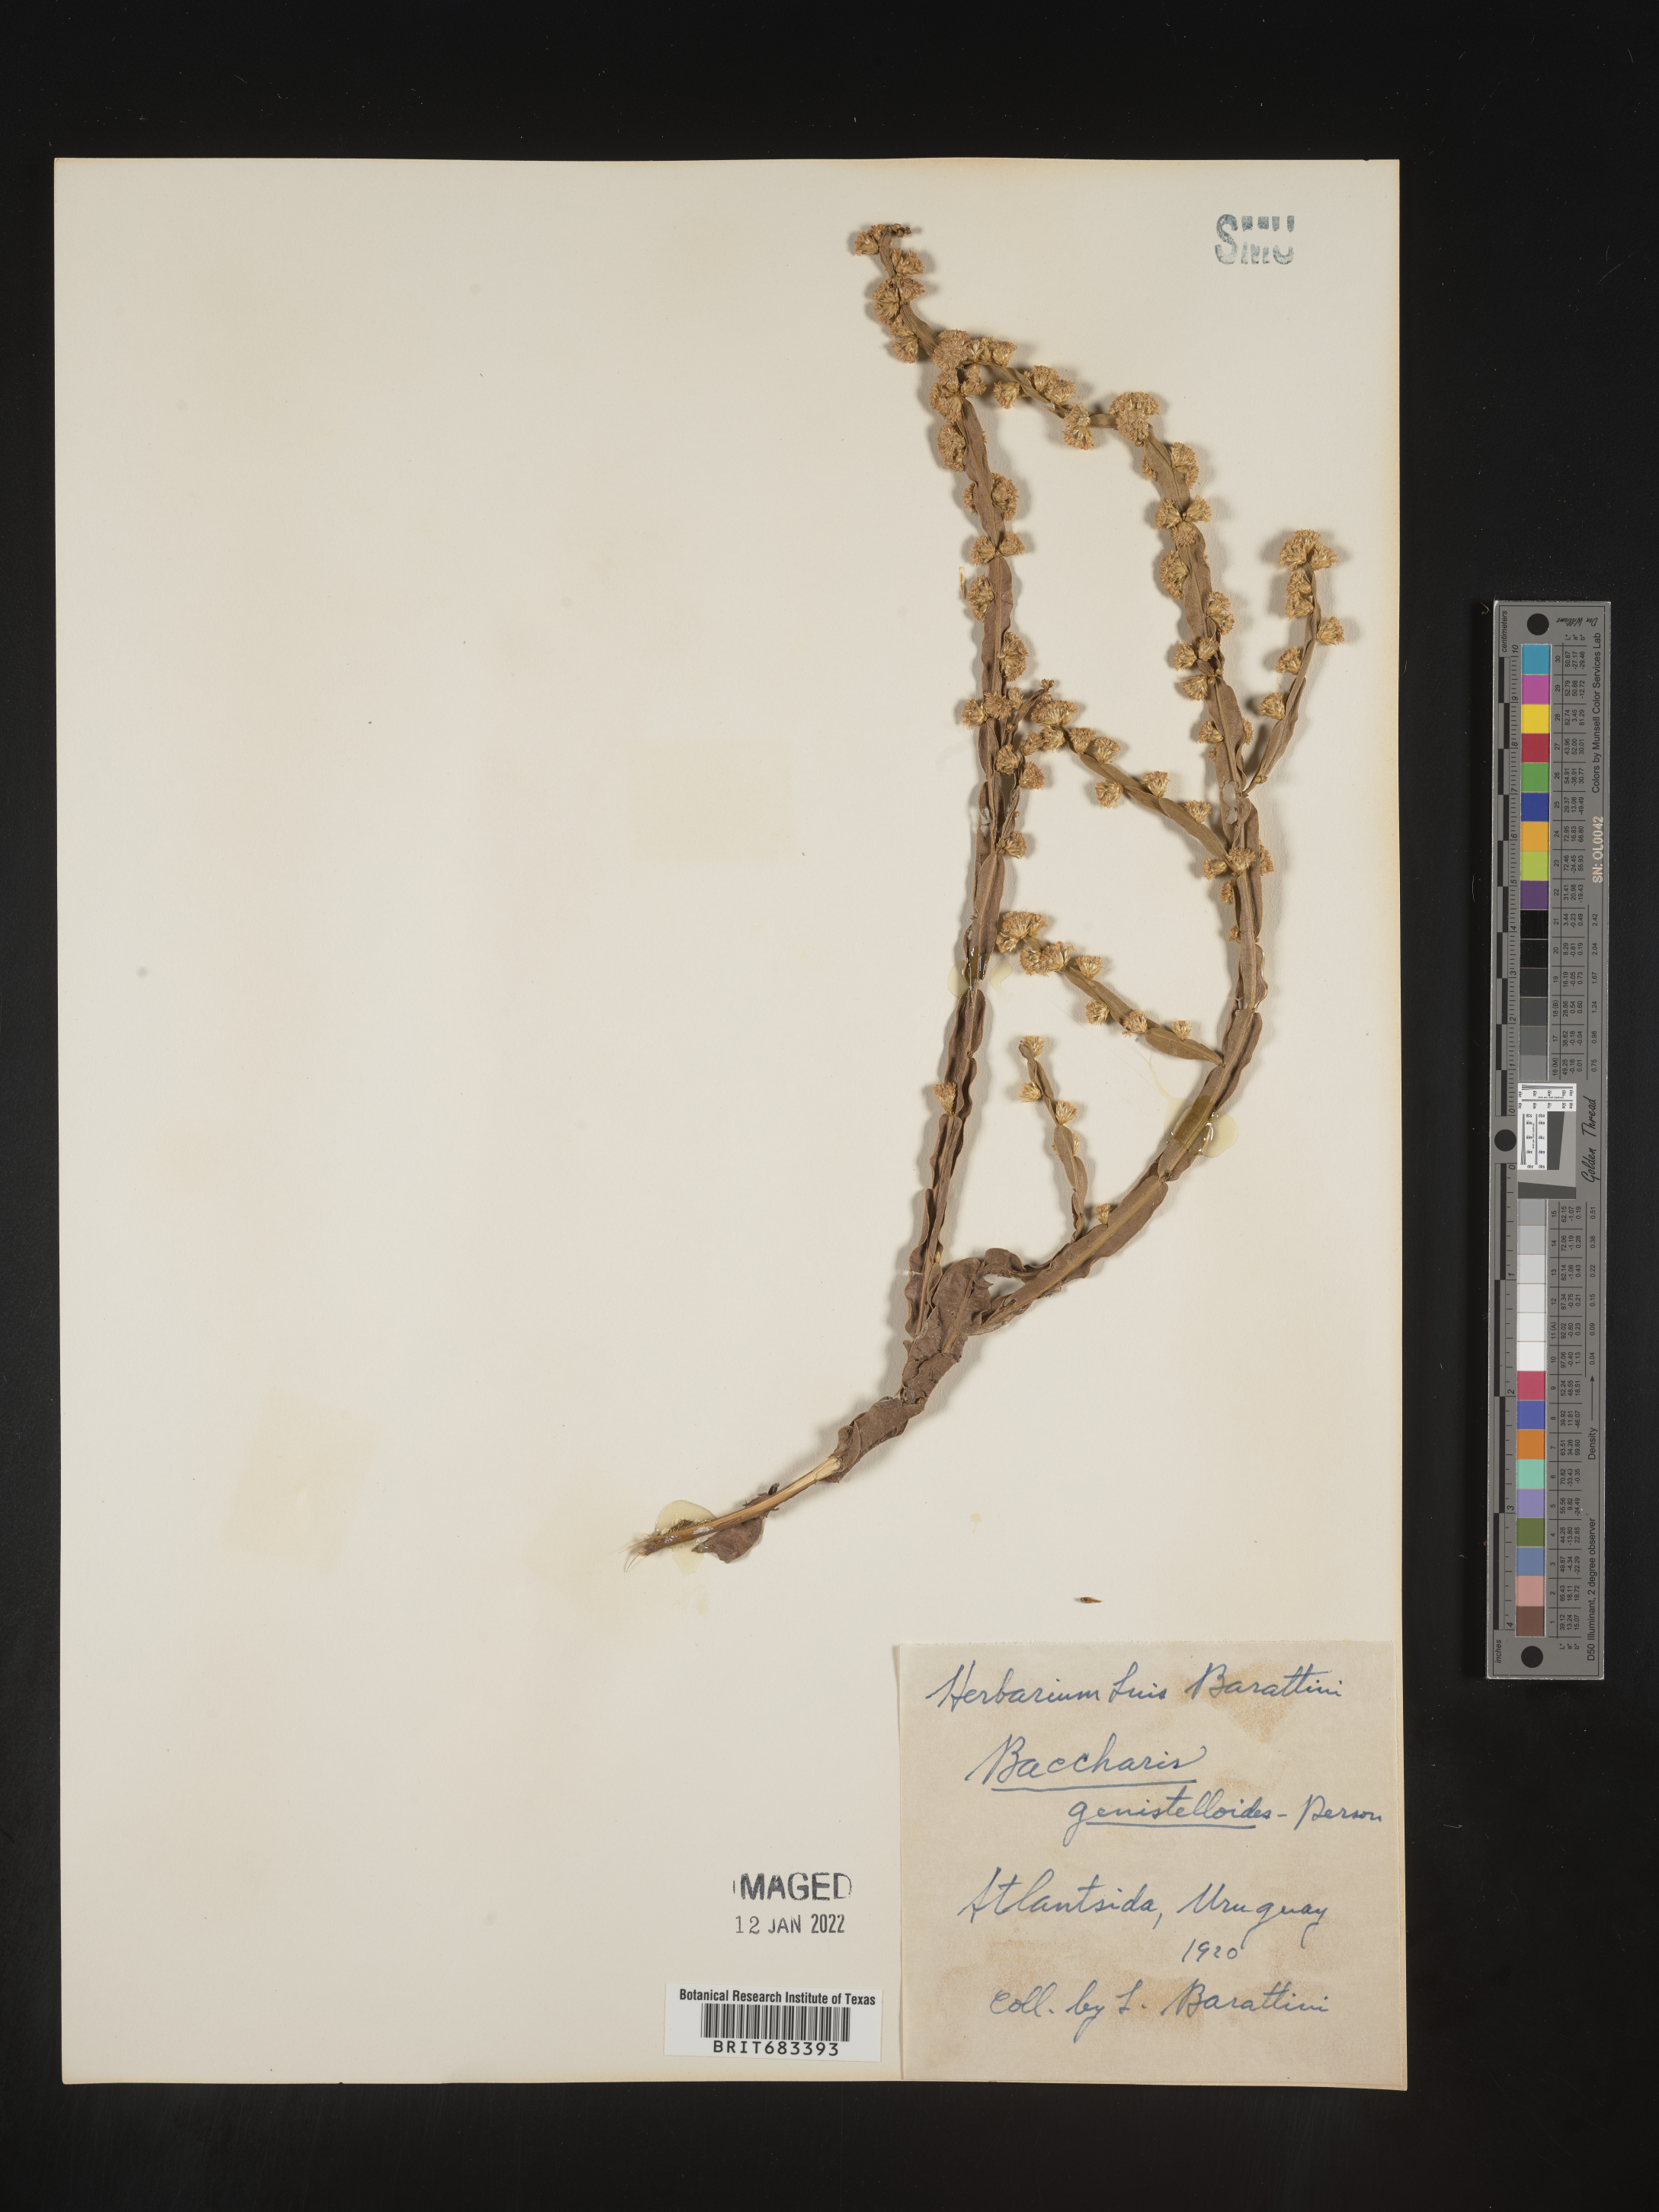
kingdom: Plantae
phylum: Tracheophyta
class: Magnoliopsida
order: Asterales
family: Asteraceae
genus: Baccharis
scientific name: Baccharis
